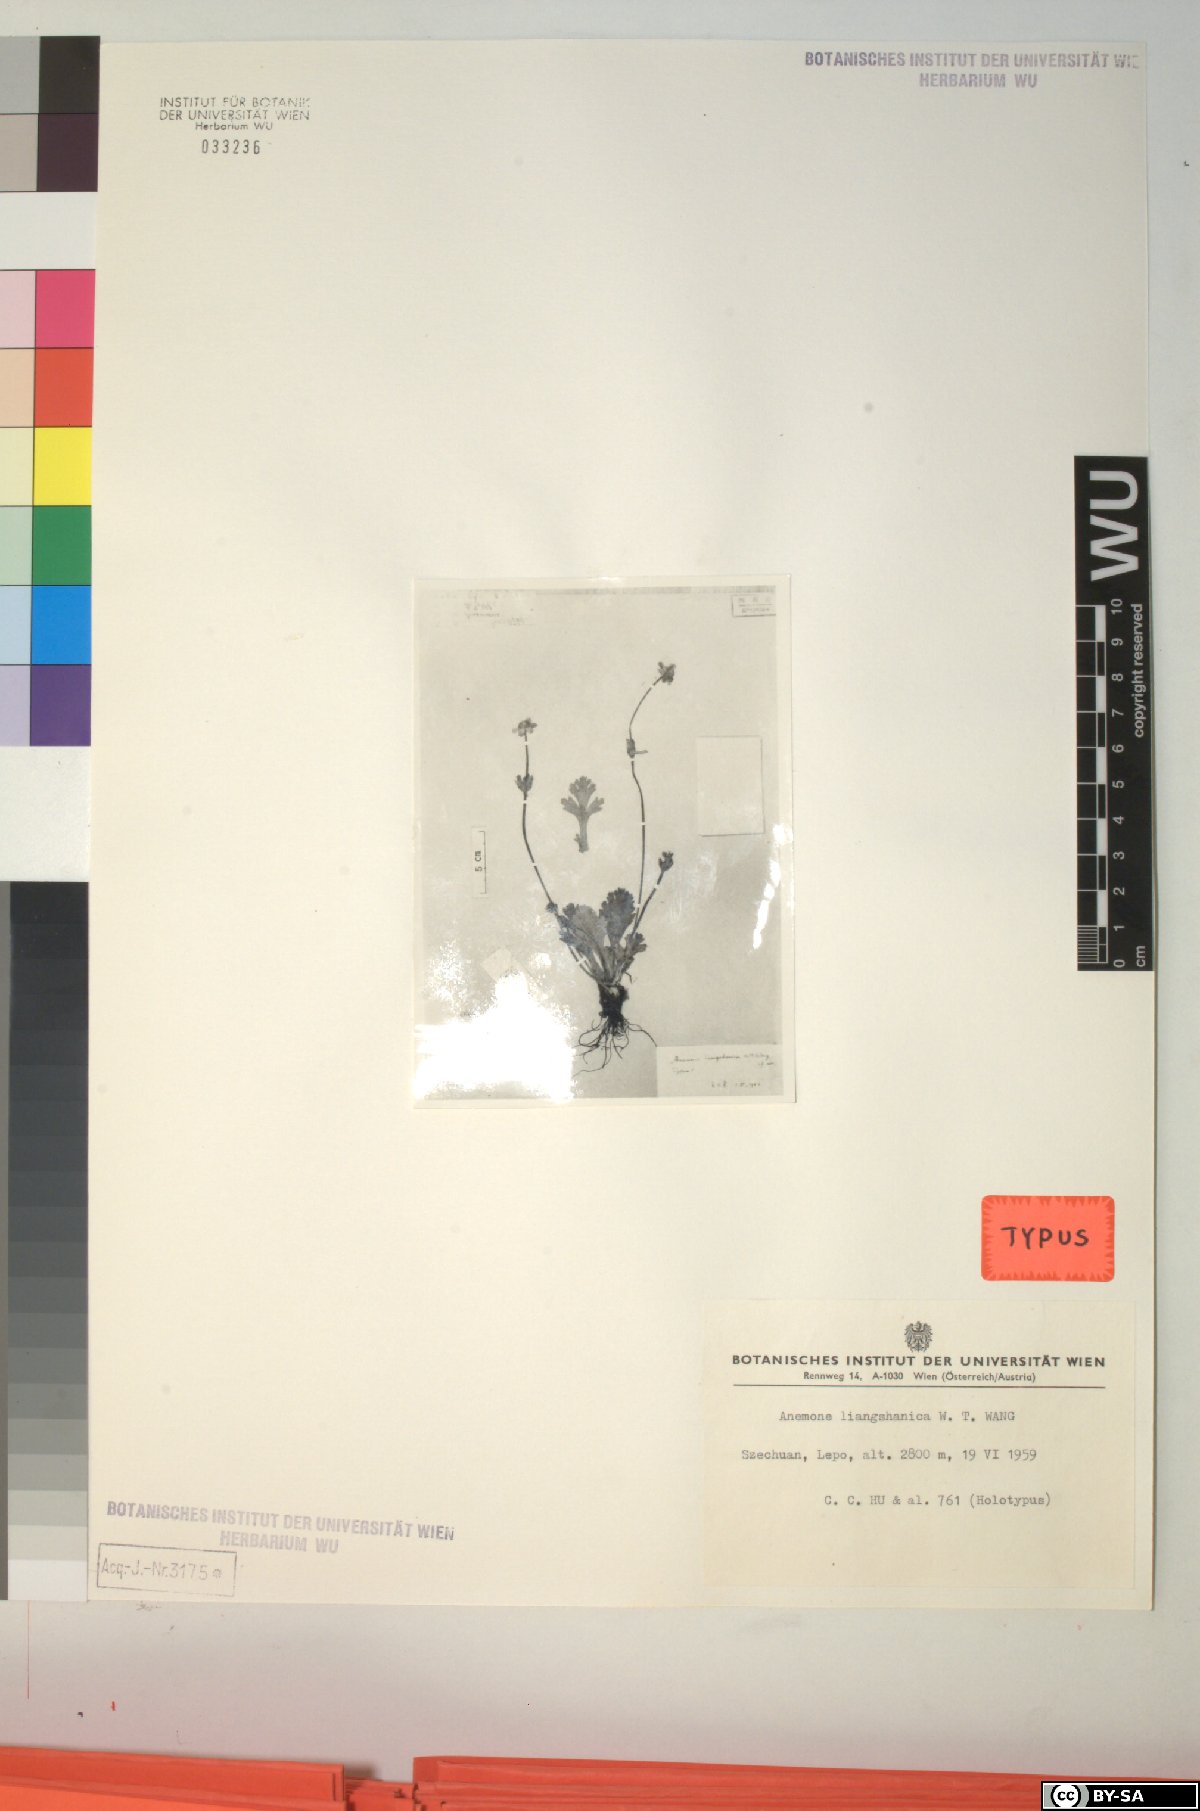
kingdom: Plantae
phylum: Tracheophyta
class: Magnoliopsida
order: Ranunculales
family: Ranunculaceae
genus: Anemonastrum
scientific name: Anemonastrum trullifolium
